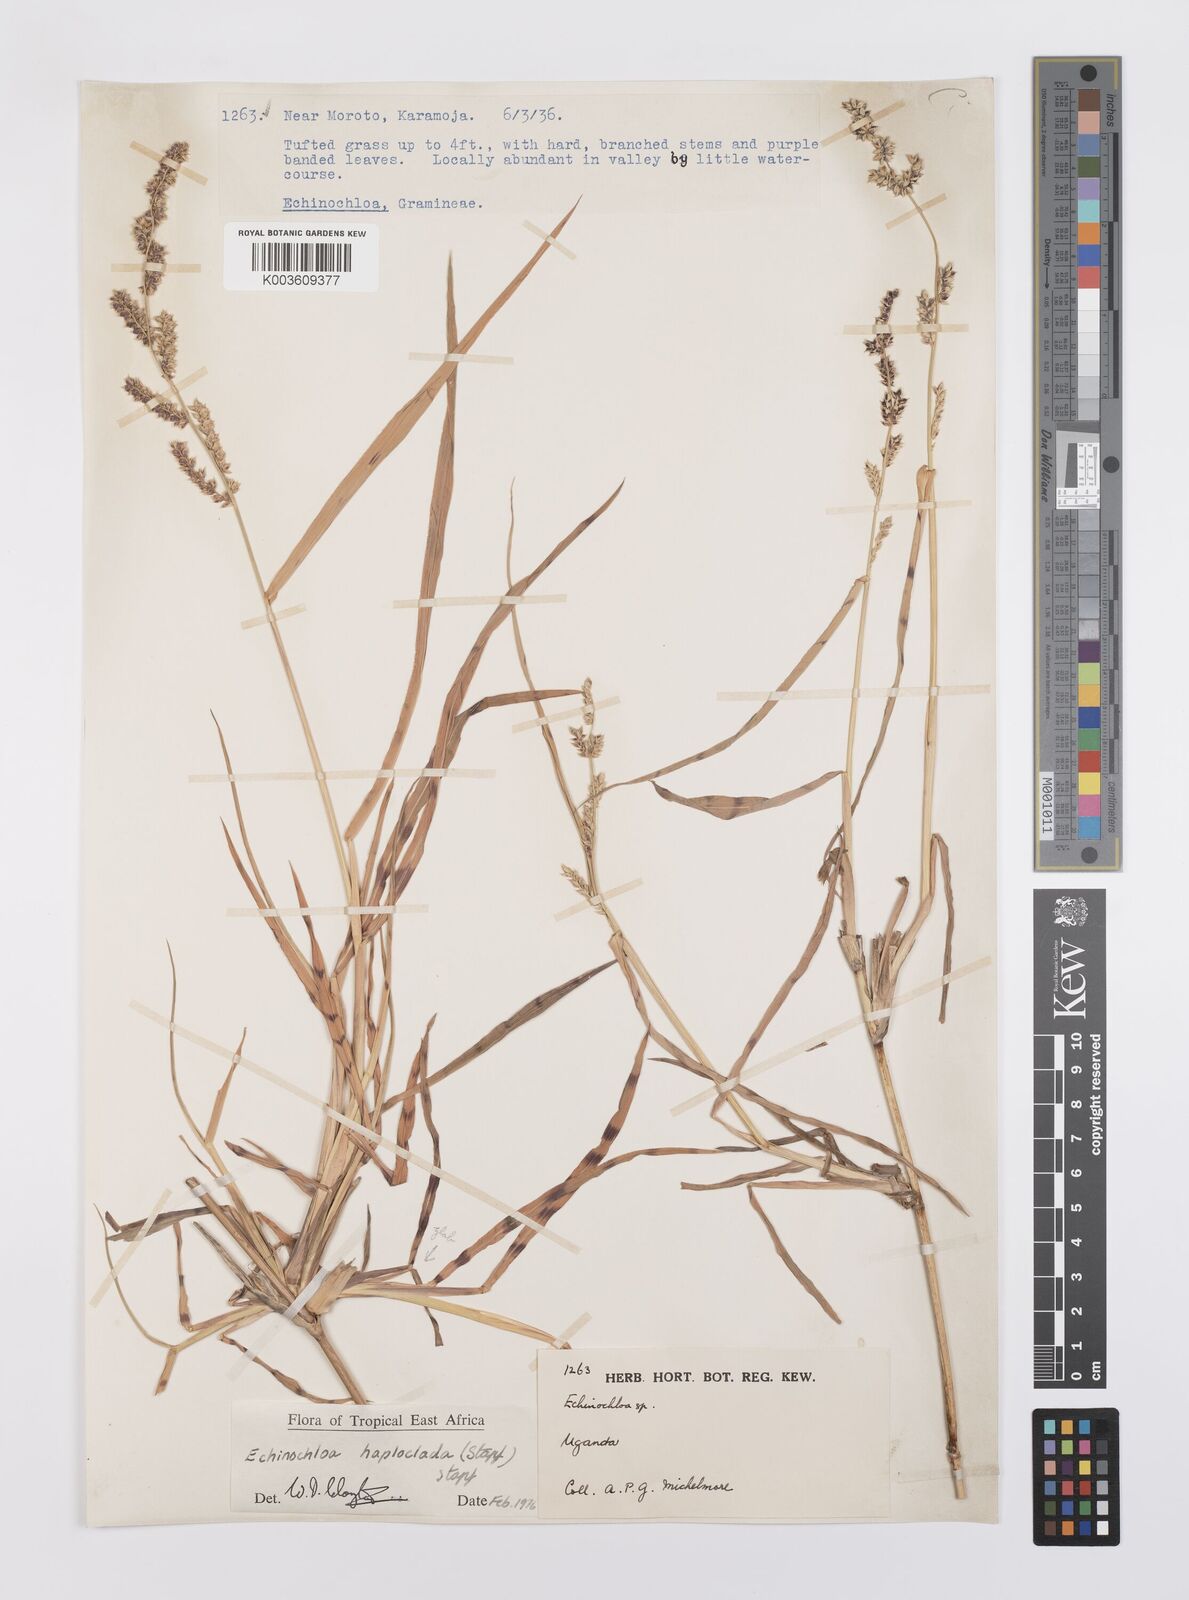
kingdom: Plantae
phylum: Tracheophyta
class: Liliopsida
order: Poales
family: Poaceae
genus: Echinochloa
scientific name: Echinochloa haploclada
